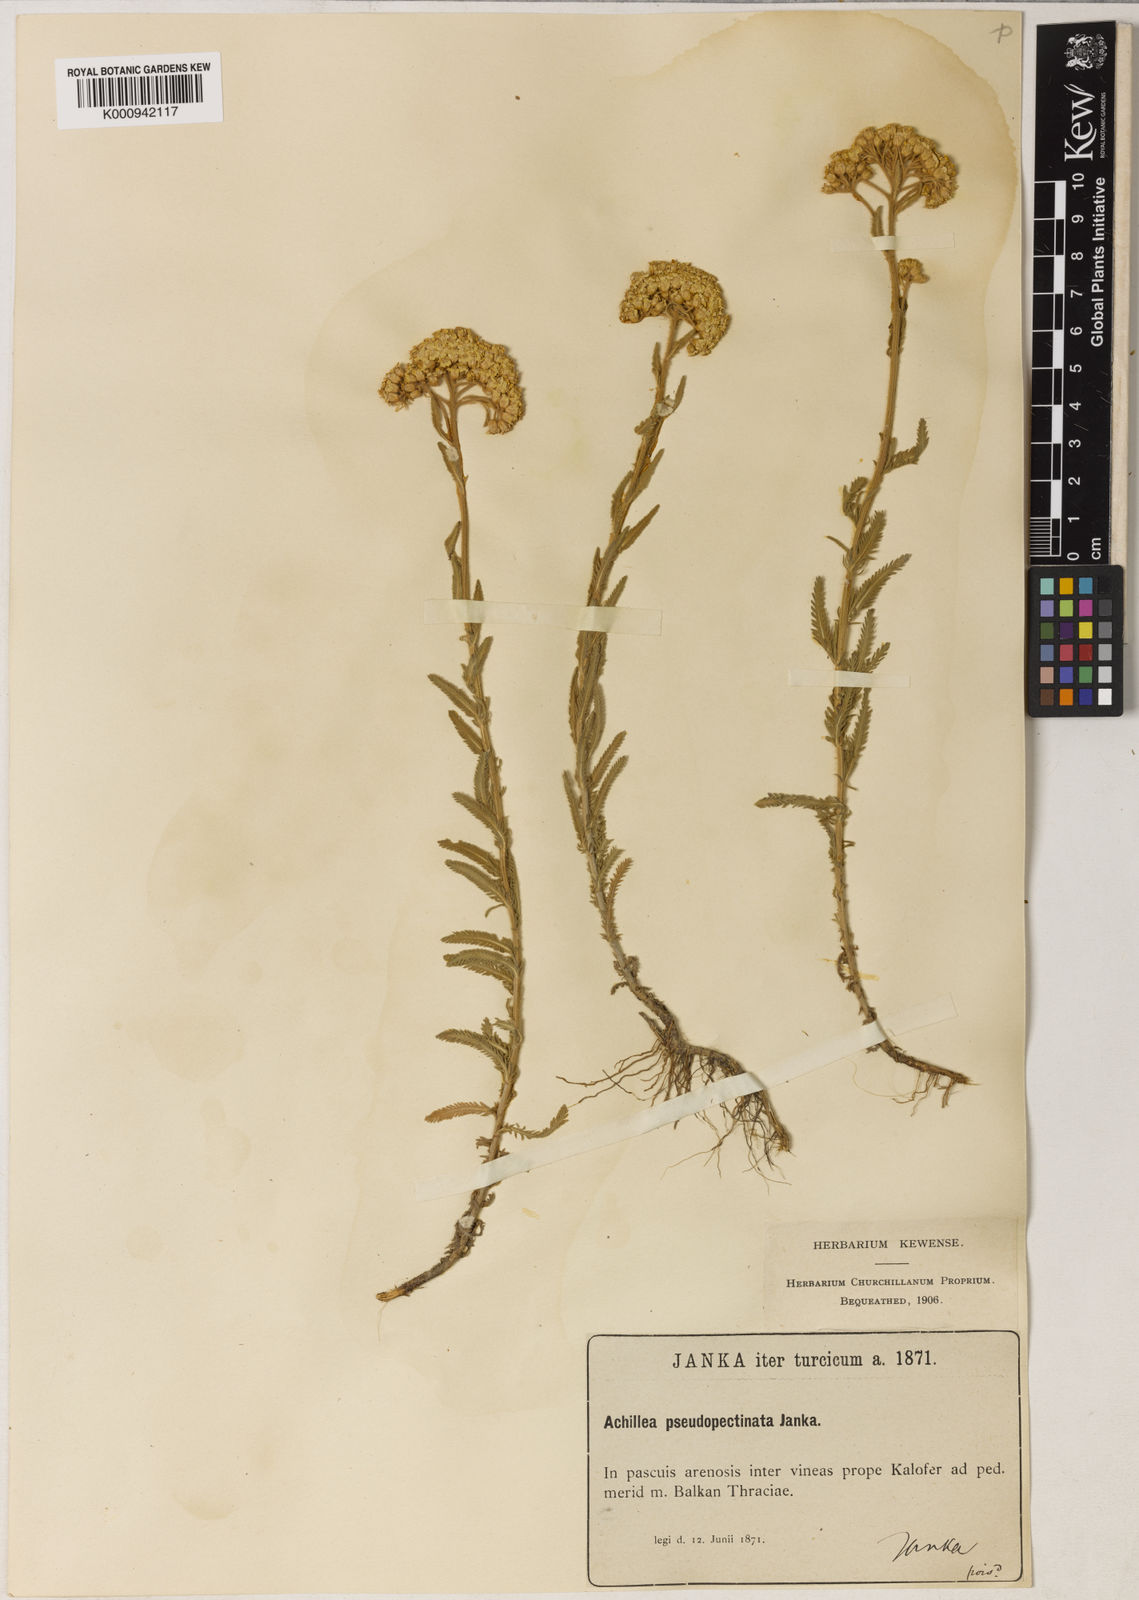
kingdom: Plantae
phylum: Tracheophyta
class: Magnoliopsida
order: Asterales
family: Asteraceae
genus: Achillea
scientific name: Achillea pseudopectinata
